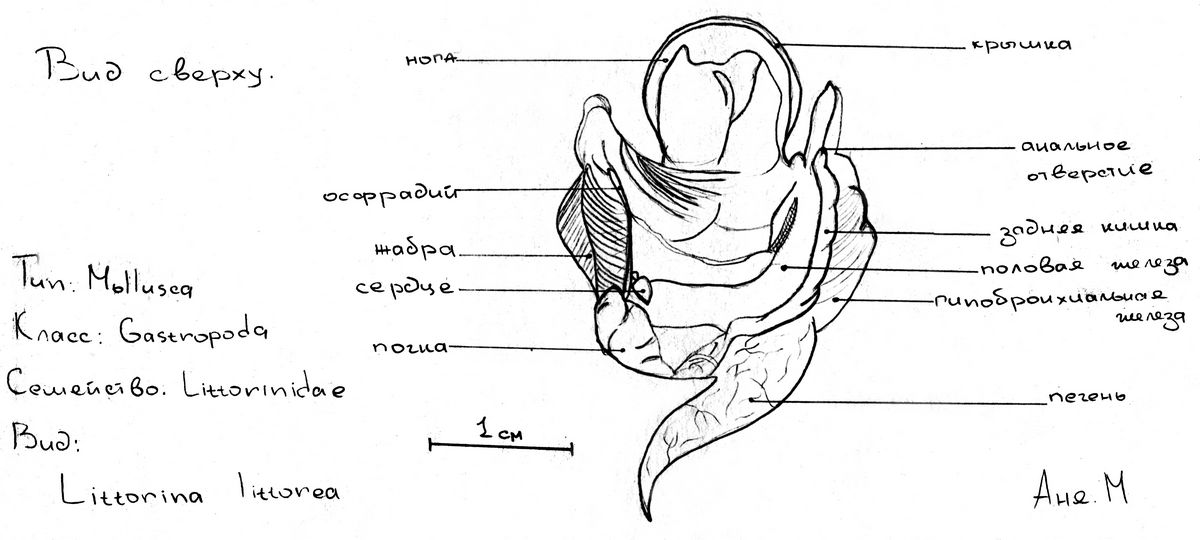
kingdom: Animalia
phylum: Mollusca
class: Gastropoda
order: Littorinimorpha
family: Littorinidae
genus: Littorina
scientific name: Littorina littorea
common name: Common periwinkle
